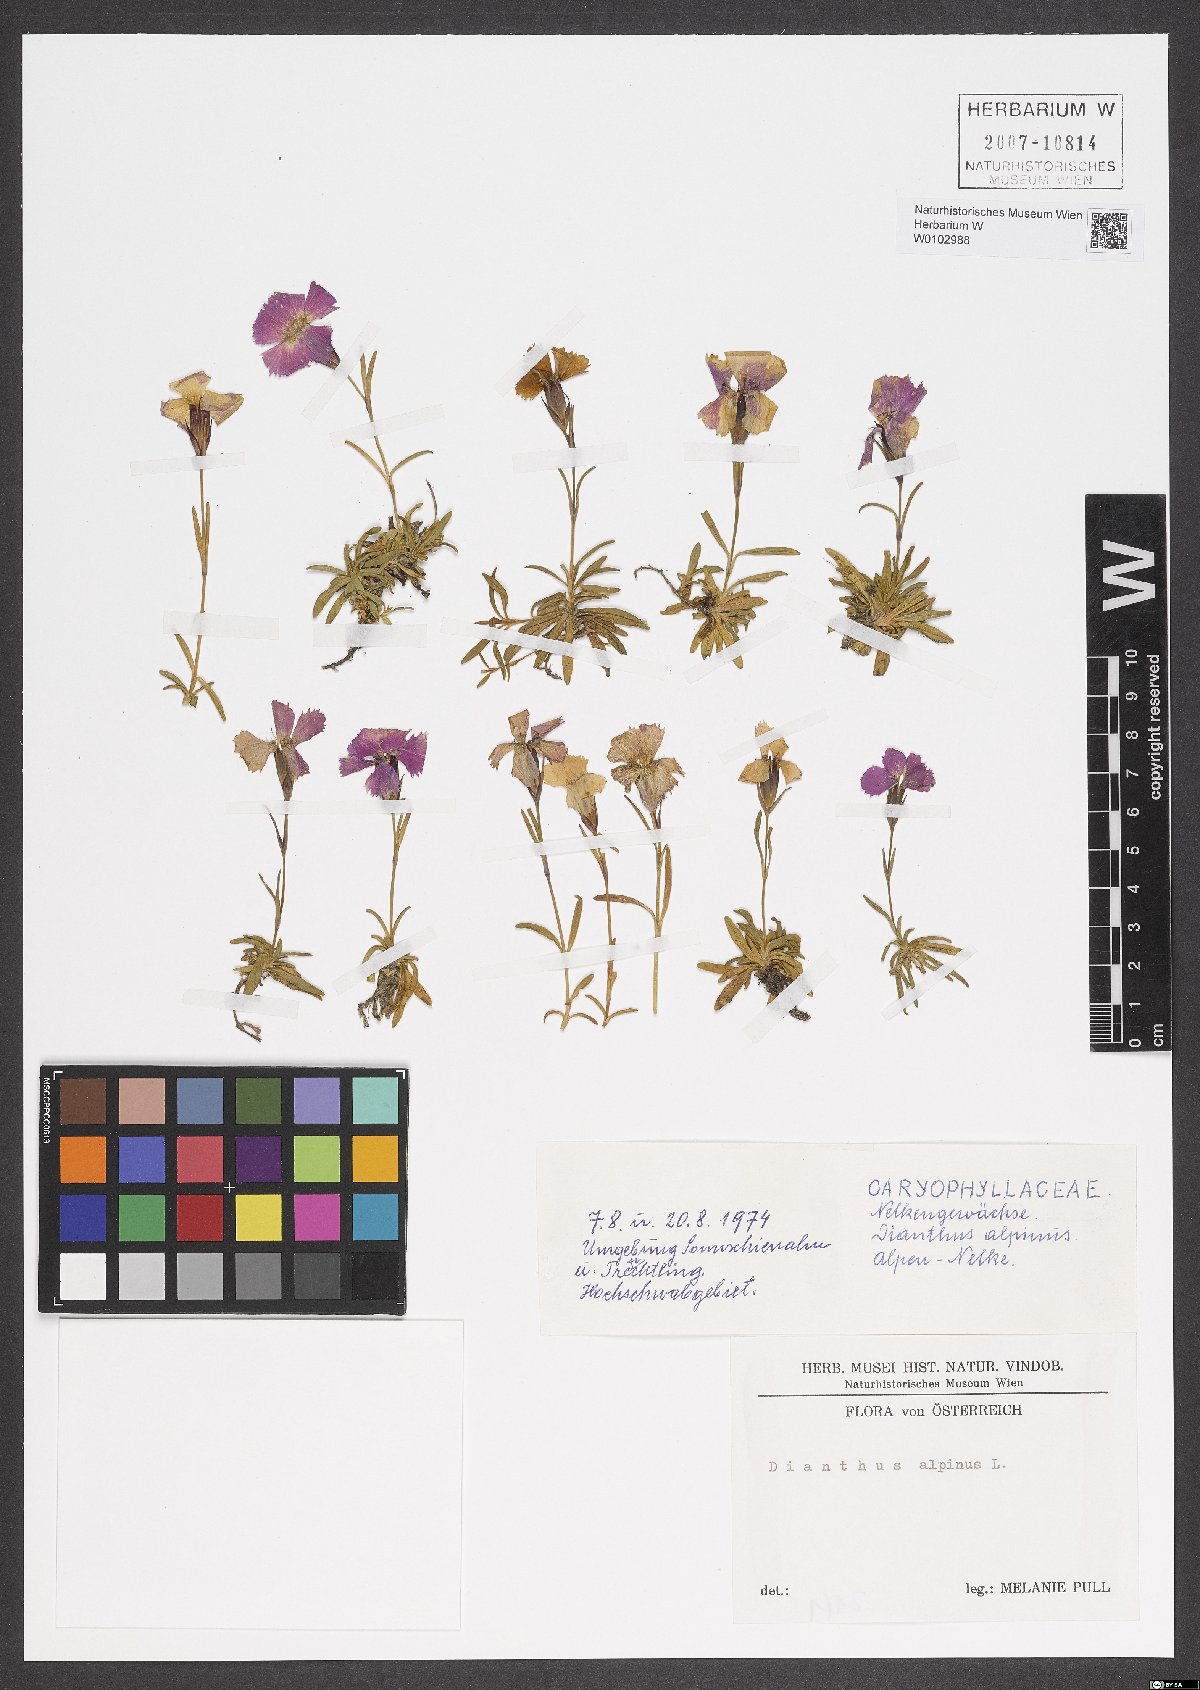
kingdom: Plantae
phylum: Tracheophyta
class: Magnoliopsida
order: Caryophyllales
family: Caryophyllaceae
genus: Dianthus
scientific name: Dianthus alpinus
